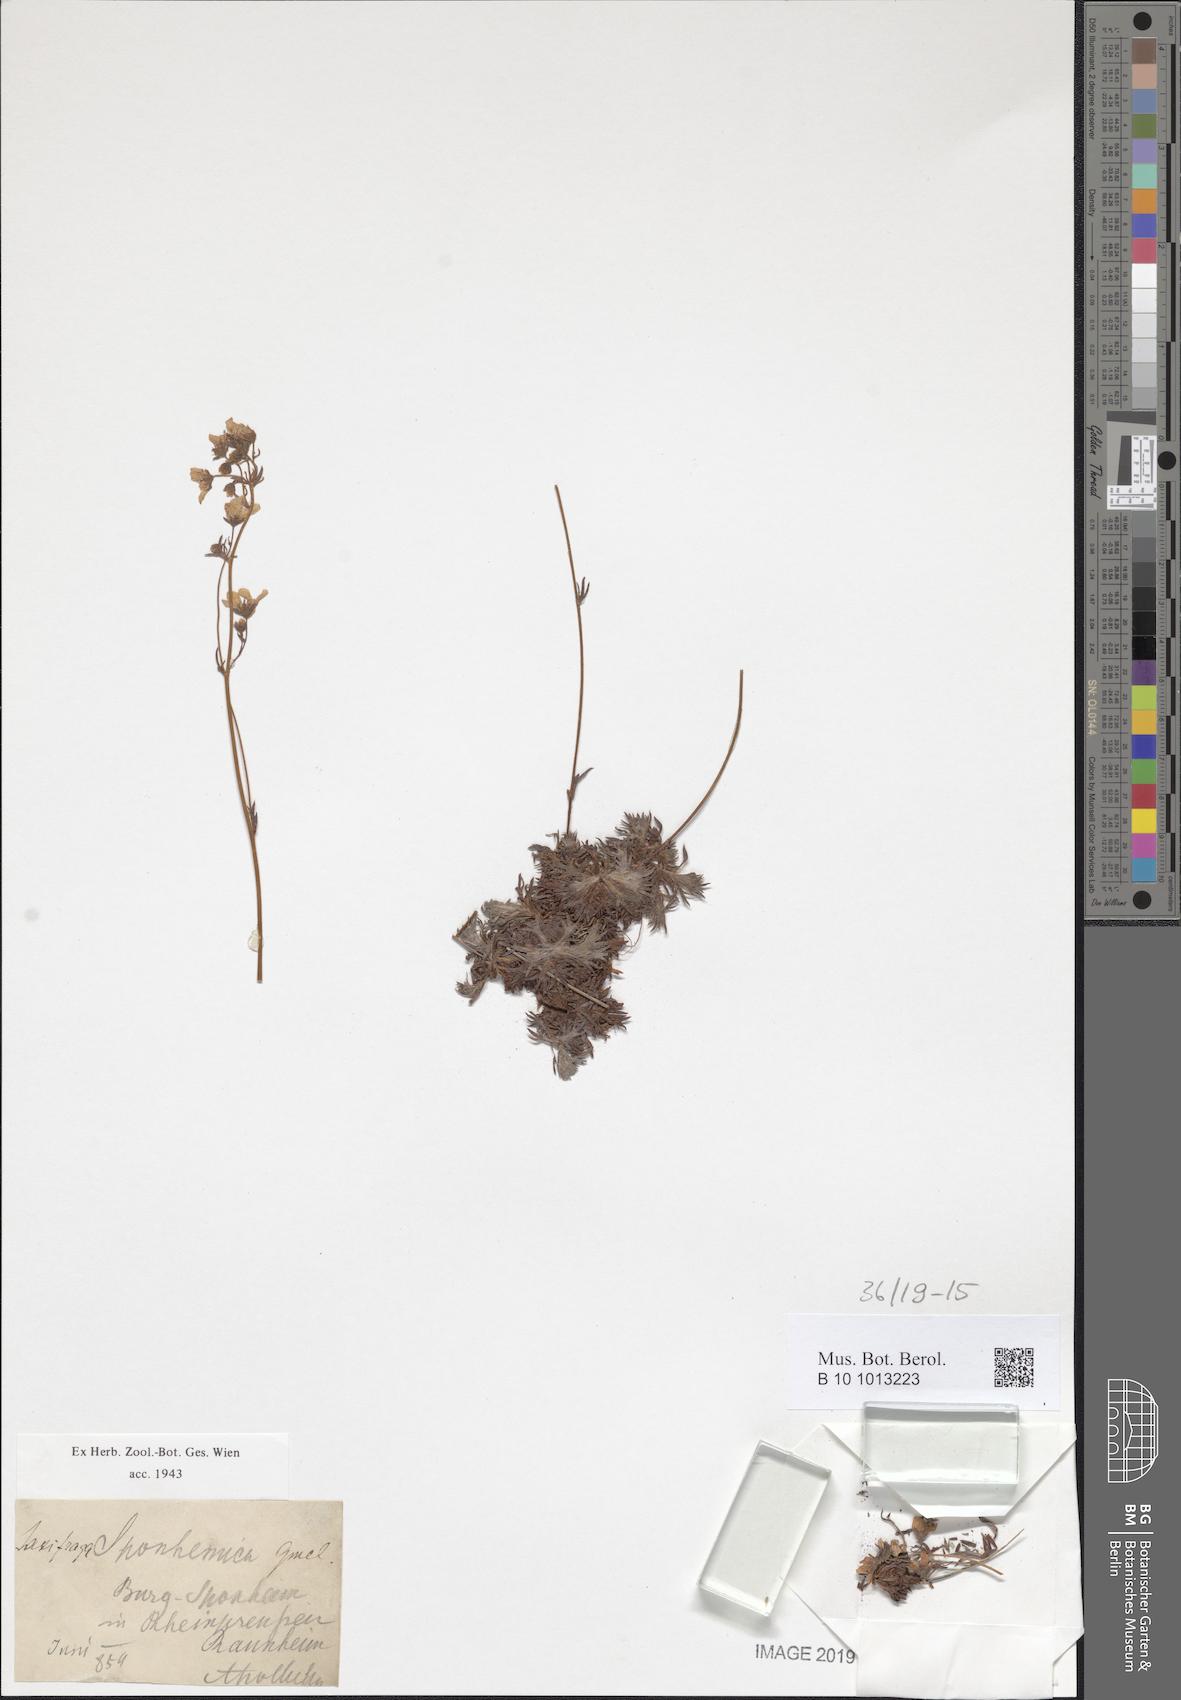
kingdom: Plantae
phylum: Tracheophyta
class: Magnoliopsida
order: Saxifragales
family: Saxifragaceae
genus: Saxifraga
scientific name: Saxifraga rosacea
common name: Irish saxifrage
